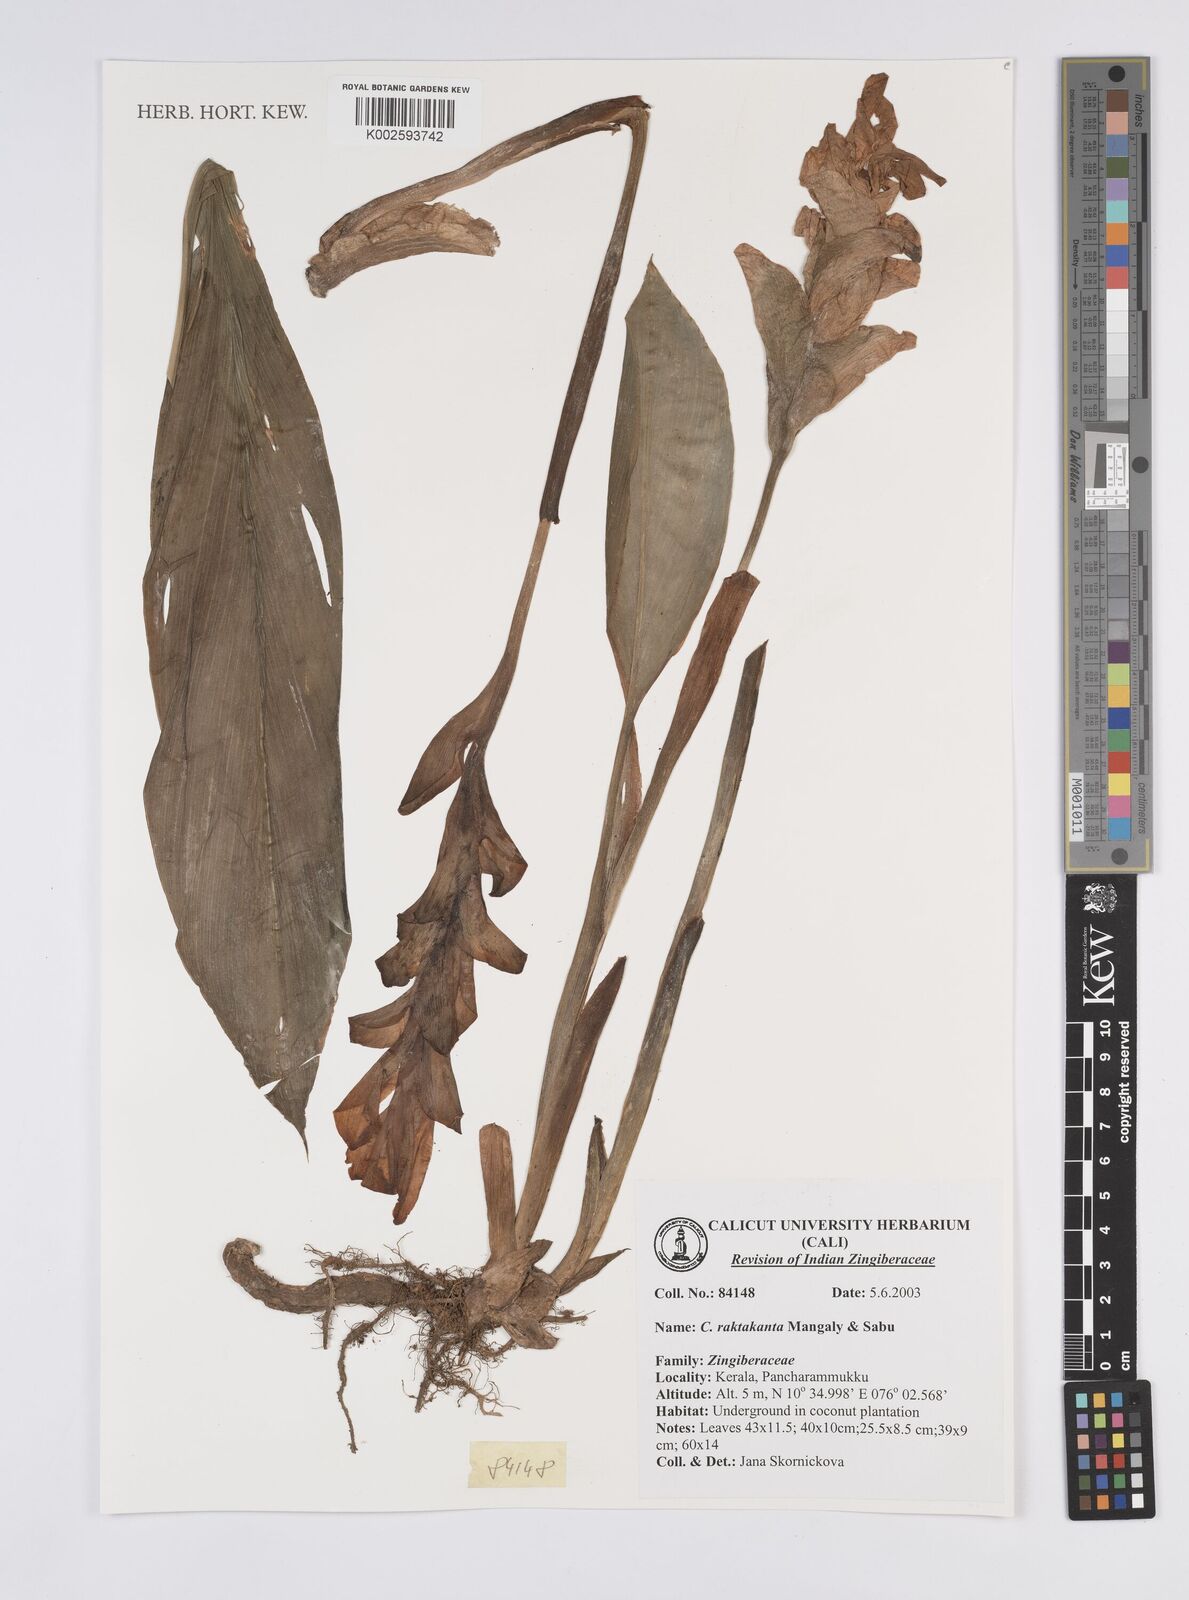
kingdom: Plantae
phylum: Tracheophyta
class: Liliopsida
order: Zingiberales
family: Zingiberaceae
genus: Curcuma
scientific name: Curcuma zedoaria
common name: Zedoary
